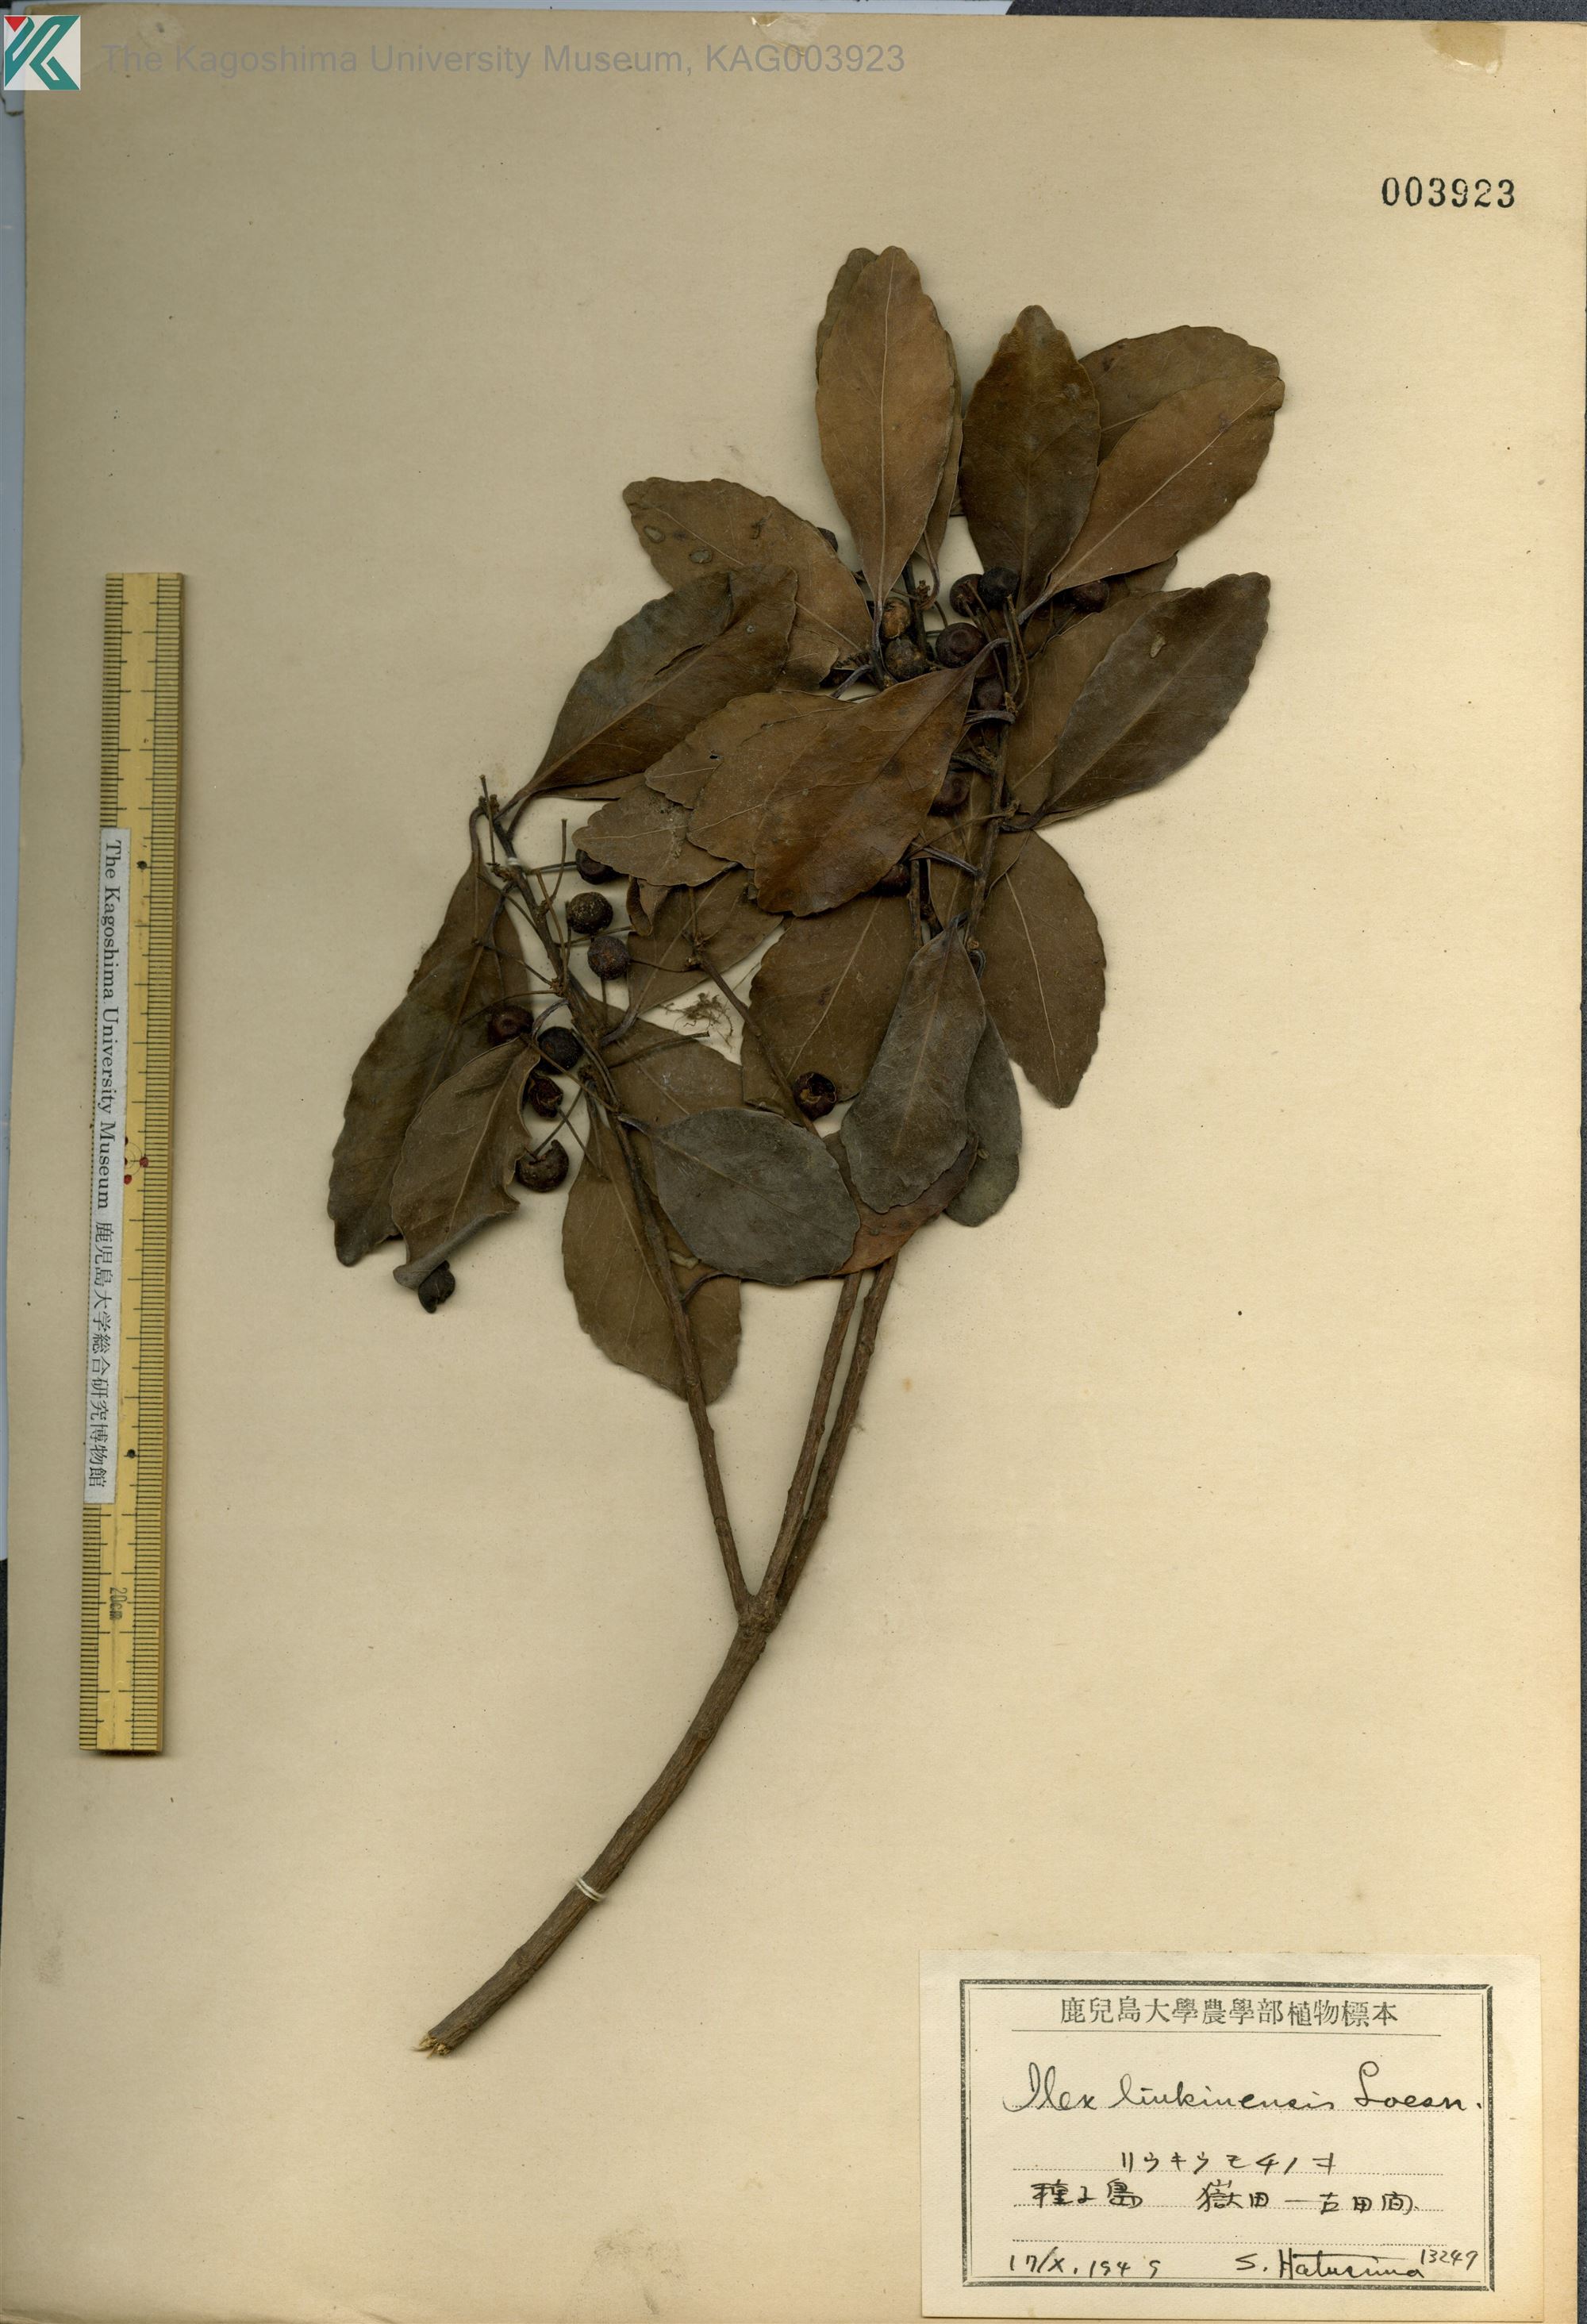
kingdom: Plantae
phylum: Tracheophyta
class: Magnoliopsida
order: Aquifoliales
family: Aquifoliaceae
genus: Ilex
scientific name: Ilex liukiuensis
